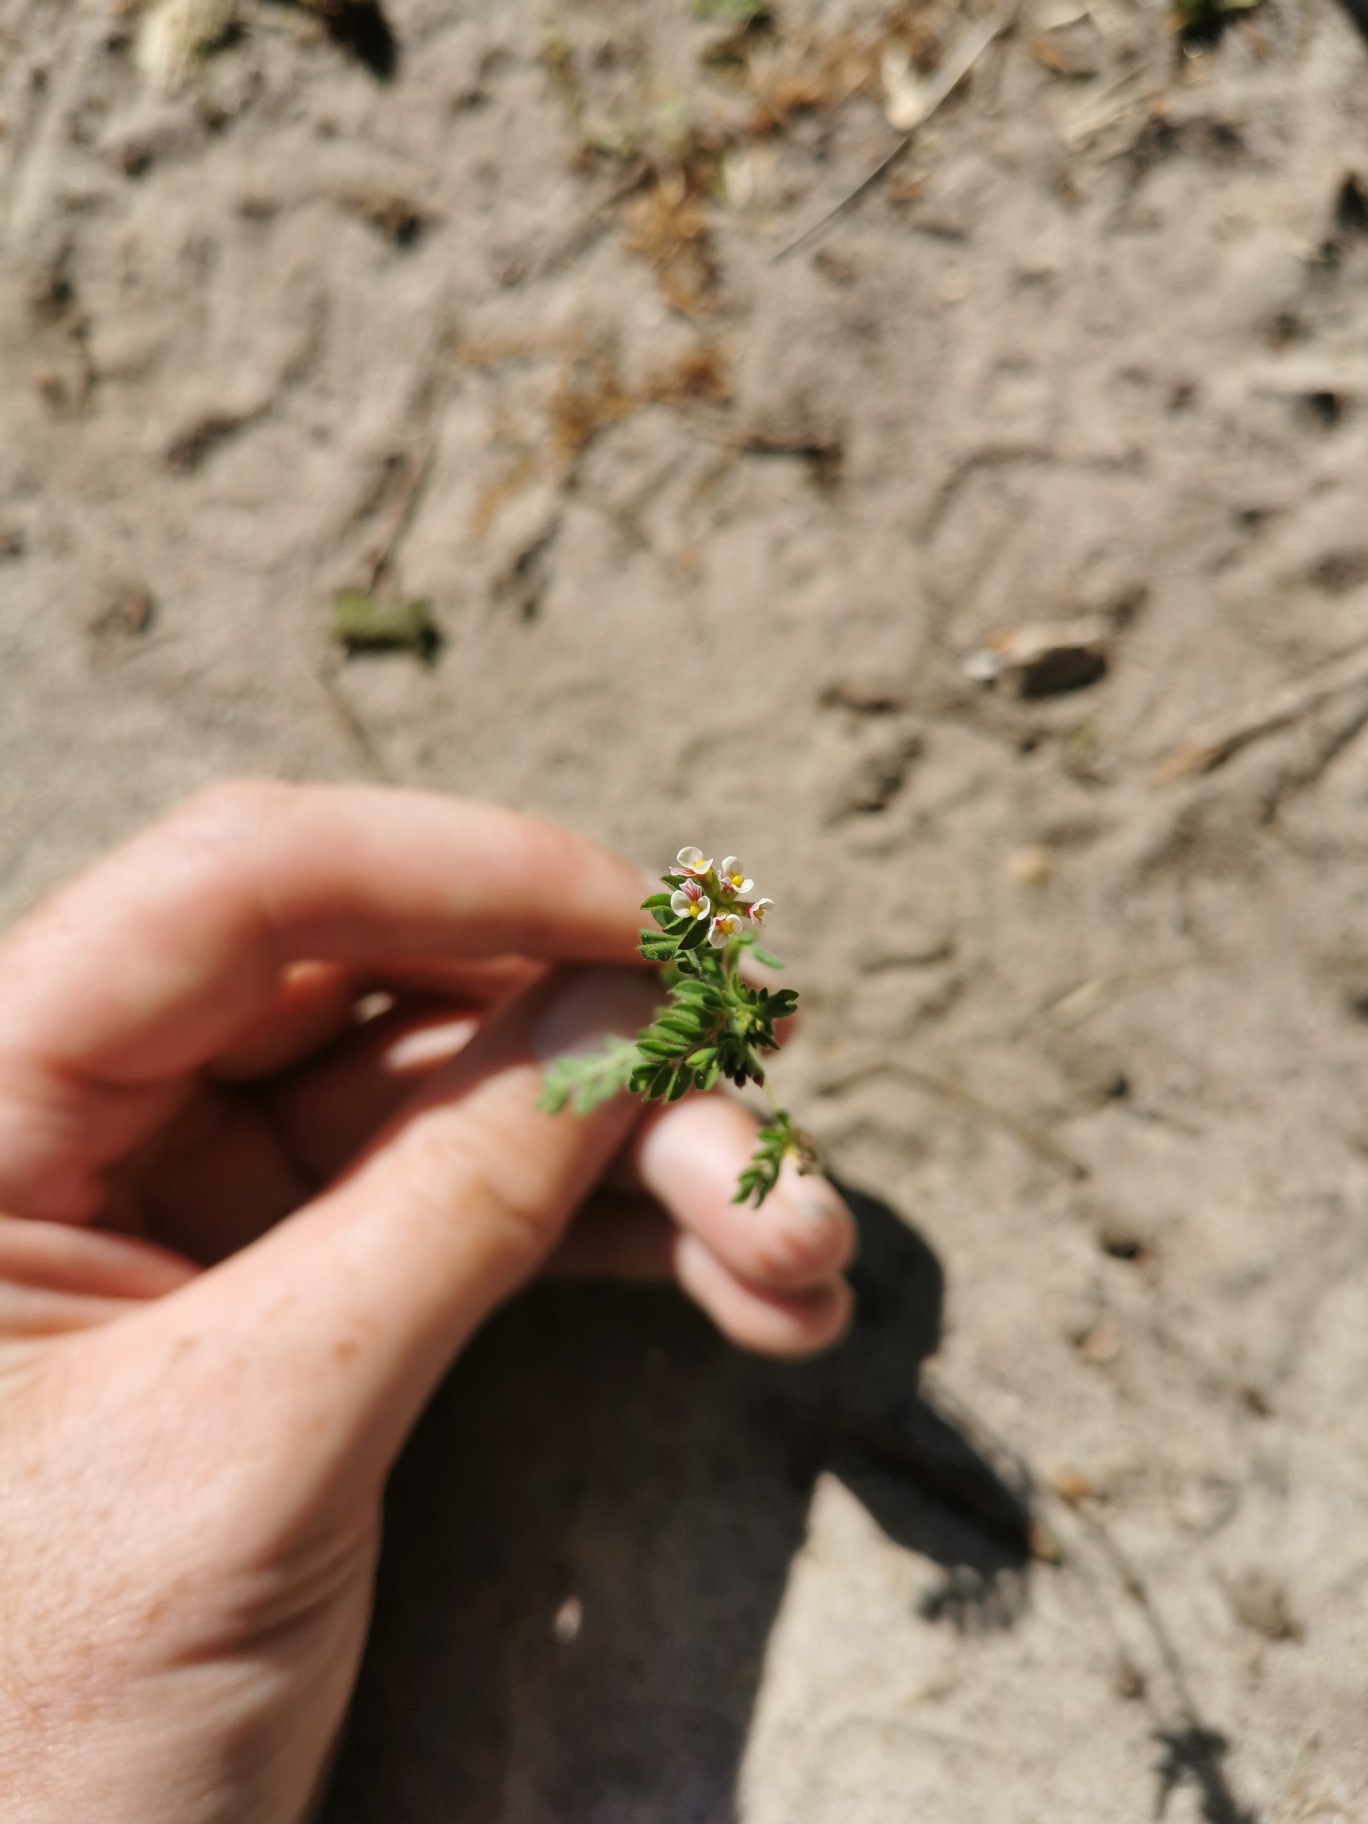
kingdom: Plantae
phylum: Tracheophyta
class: Magnoliopsida
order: Fabales
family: Fabaceae
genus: Ornithopus
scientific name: Ornithopus perpusillus
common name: Liden fugleklo
